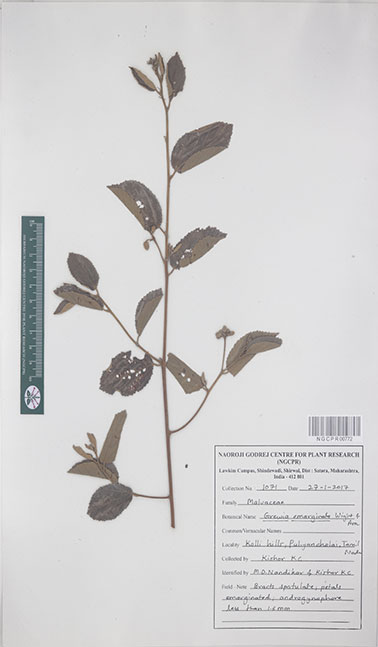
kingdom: Plantae
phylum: Tracheophyta
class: Magnoliopsida
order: Malvales
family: Malvaceae
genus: Grewia
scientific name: Grewia oppositifolia
